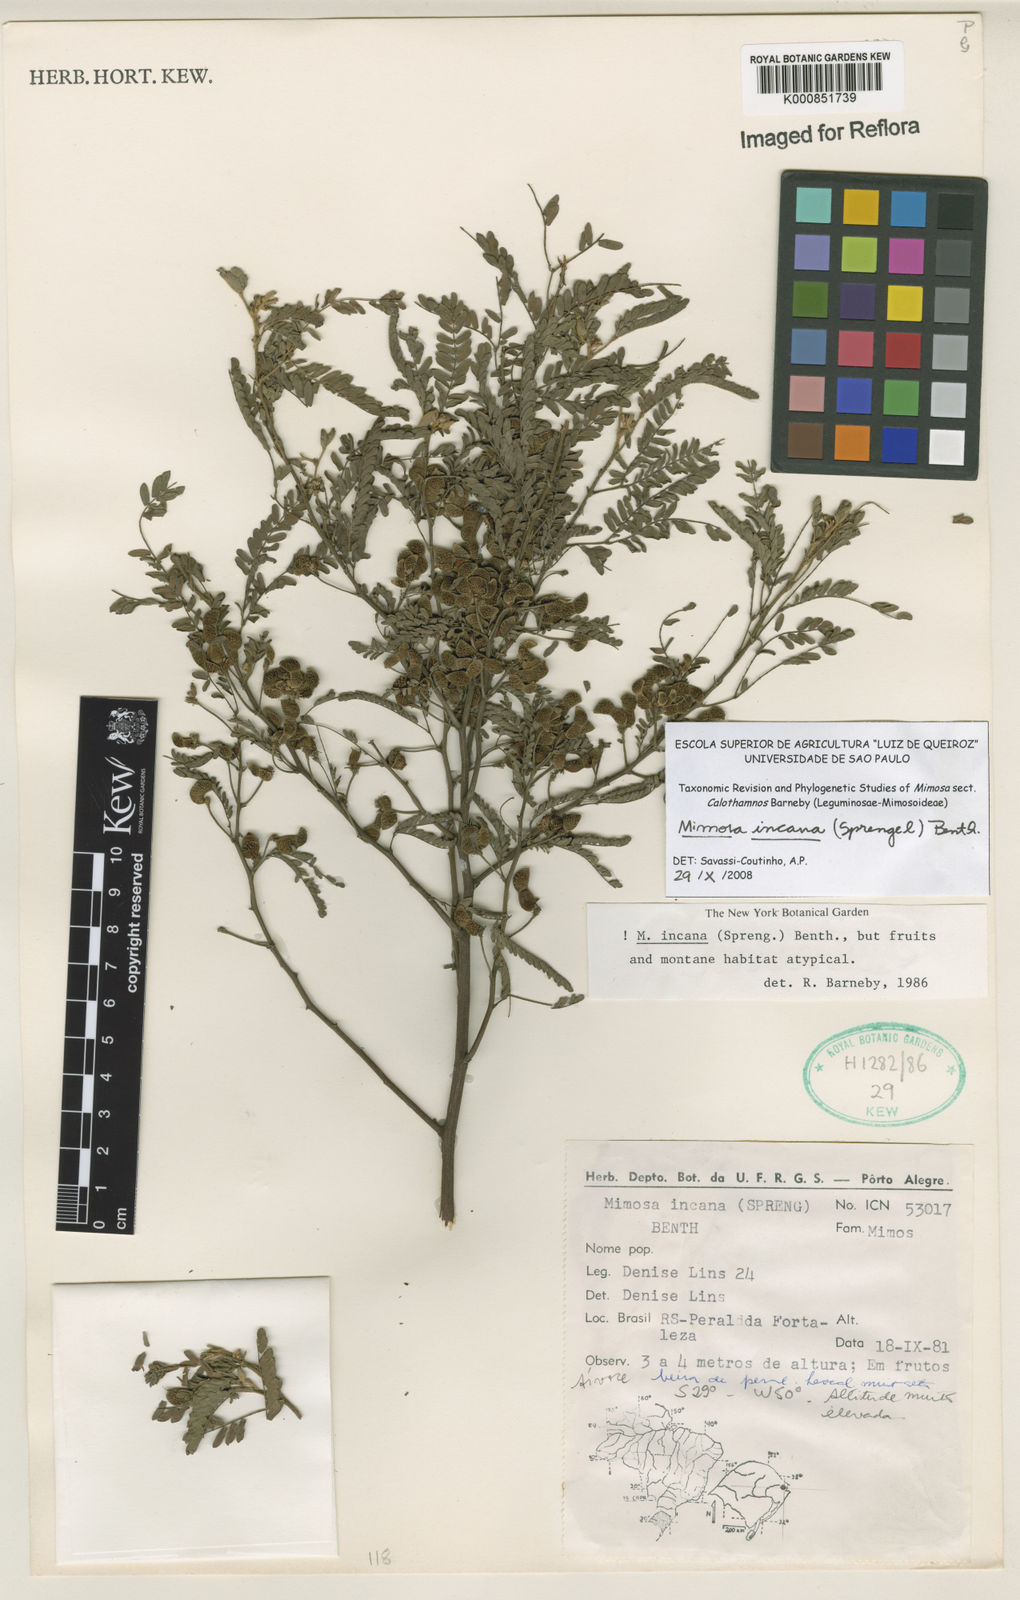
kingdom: Plantae
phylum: Tracheophyta
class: Magnoliopsida
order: Fabales
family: Fabaceae
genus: Mimosa
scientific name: Mimosa incana
